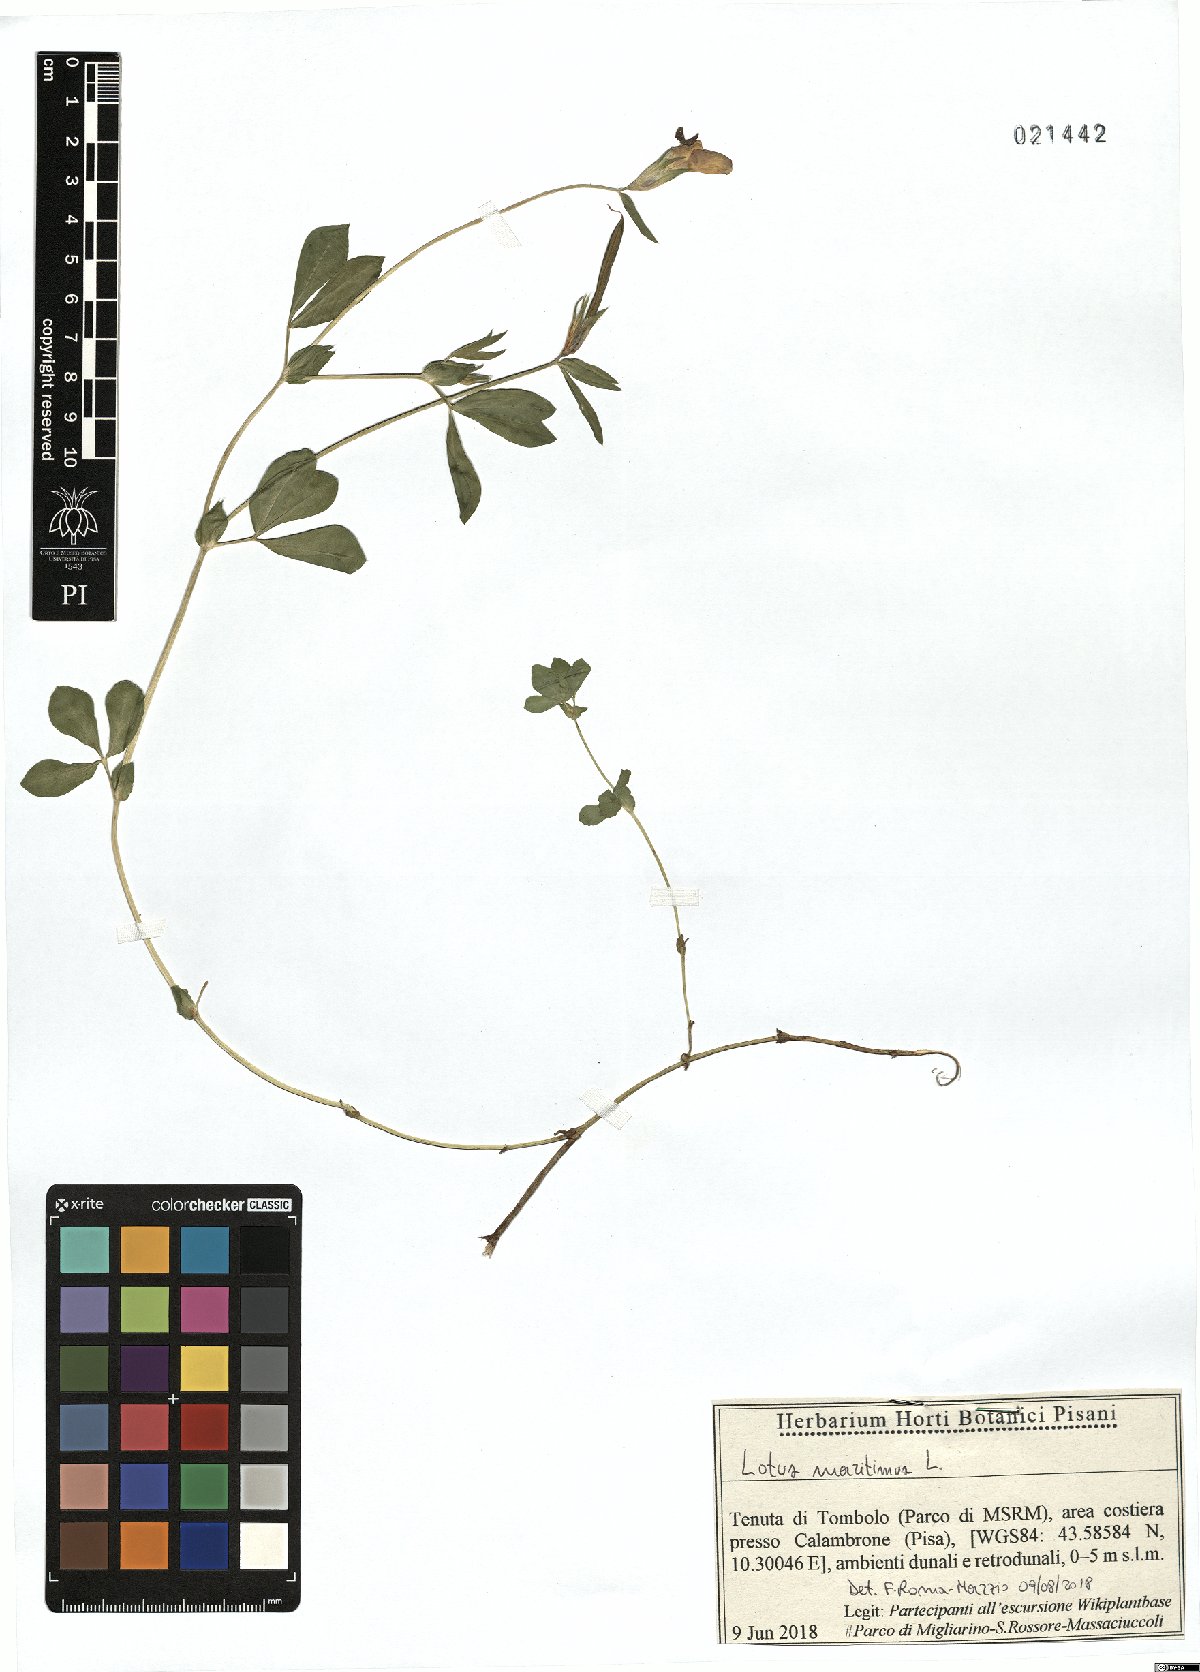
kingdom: Plantae
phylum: Tracheophyta
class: Magnoliopsida
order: Fabales
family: Fabaceae
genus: Lotus
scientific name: Lotus maritimus
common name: Dragon's-teeth
